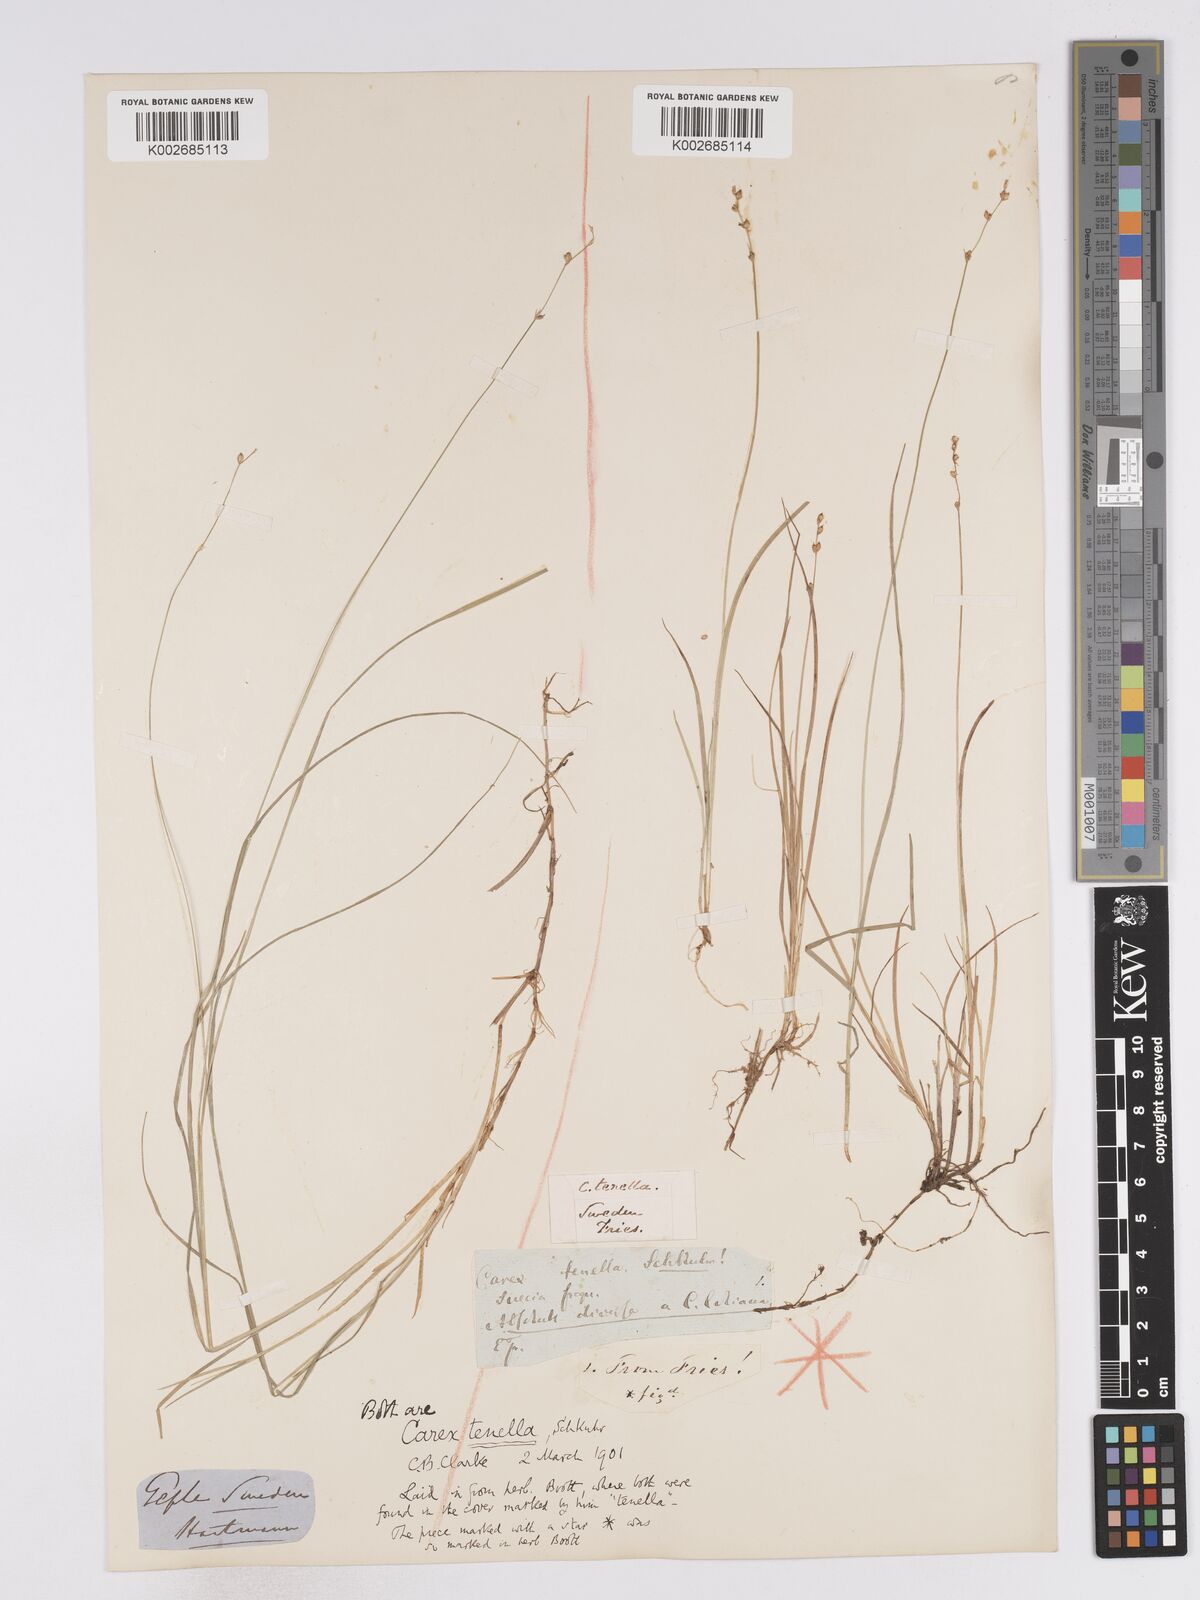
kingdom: Plantae
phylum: Tracheophyta
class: Liliopsida
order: Poales
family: Cyperaceae
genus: Carex
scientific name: Carex disperma
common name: Short-leaved sedge
